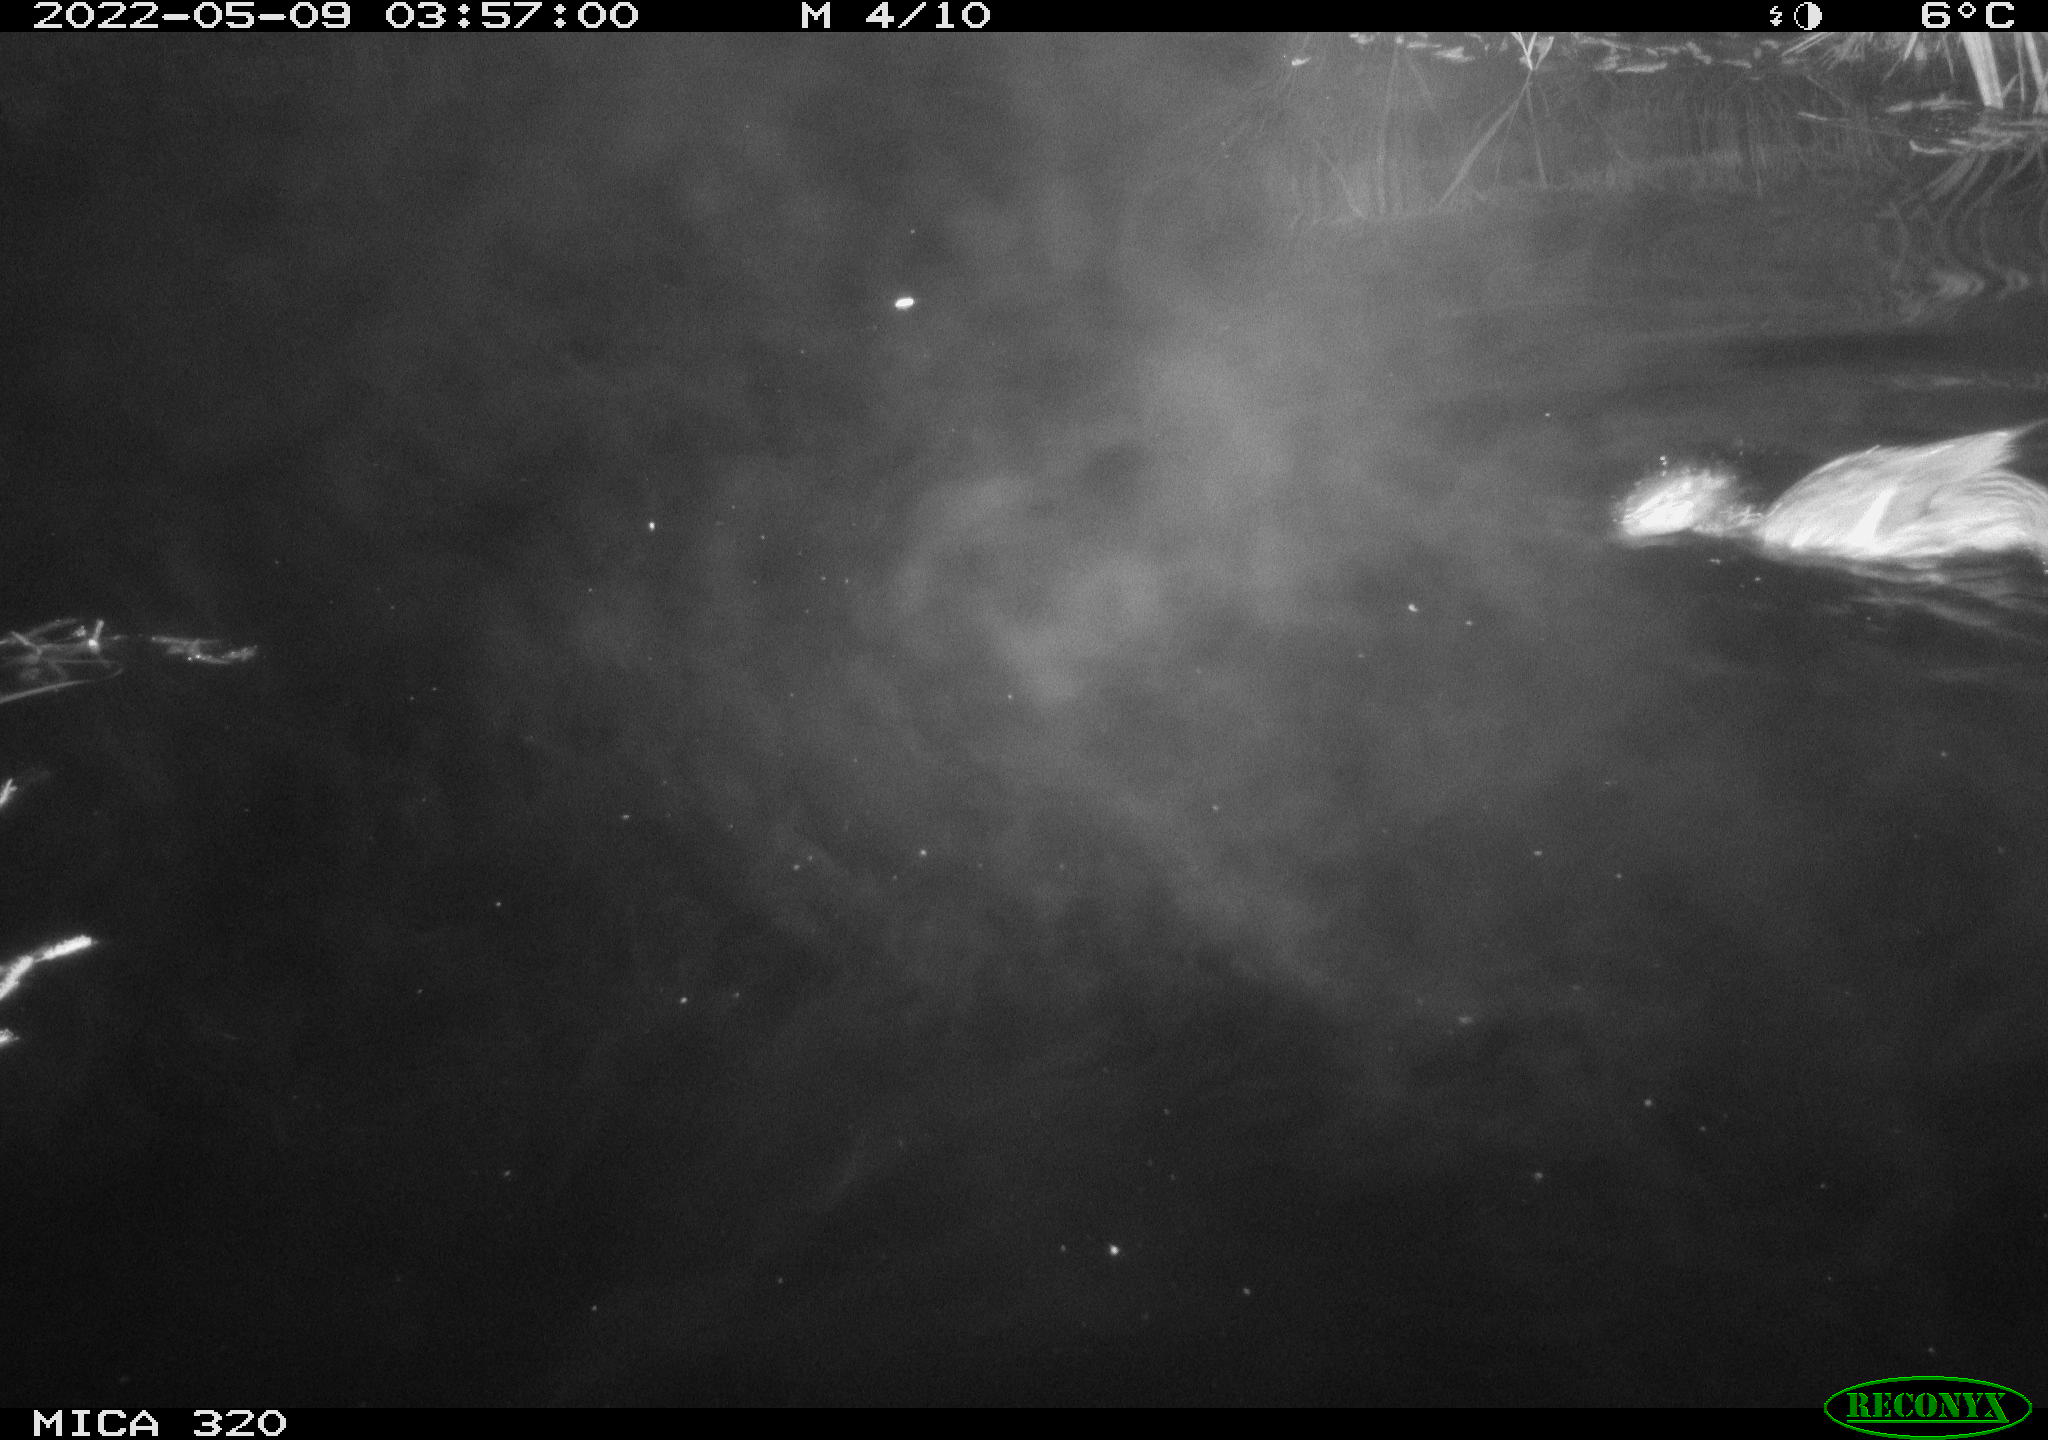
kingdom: Animalia
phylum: Chordata
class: Aves
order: Anseriformes
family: Anatidae
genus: Mareca
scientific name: Mareca strepera
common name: Gadwall
